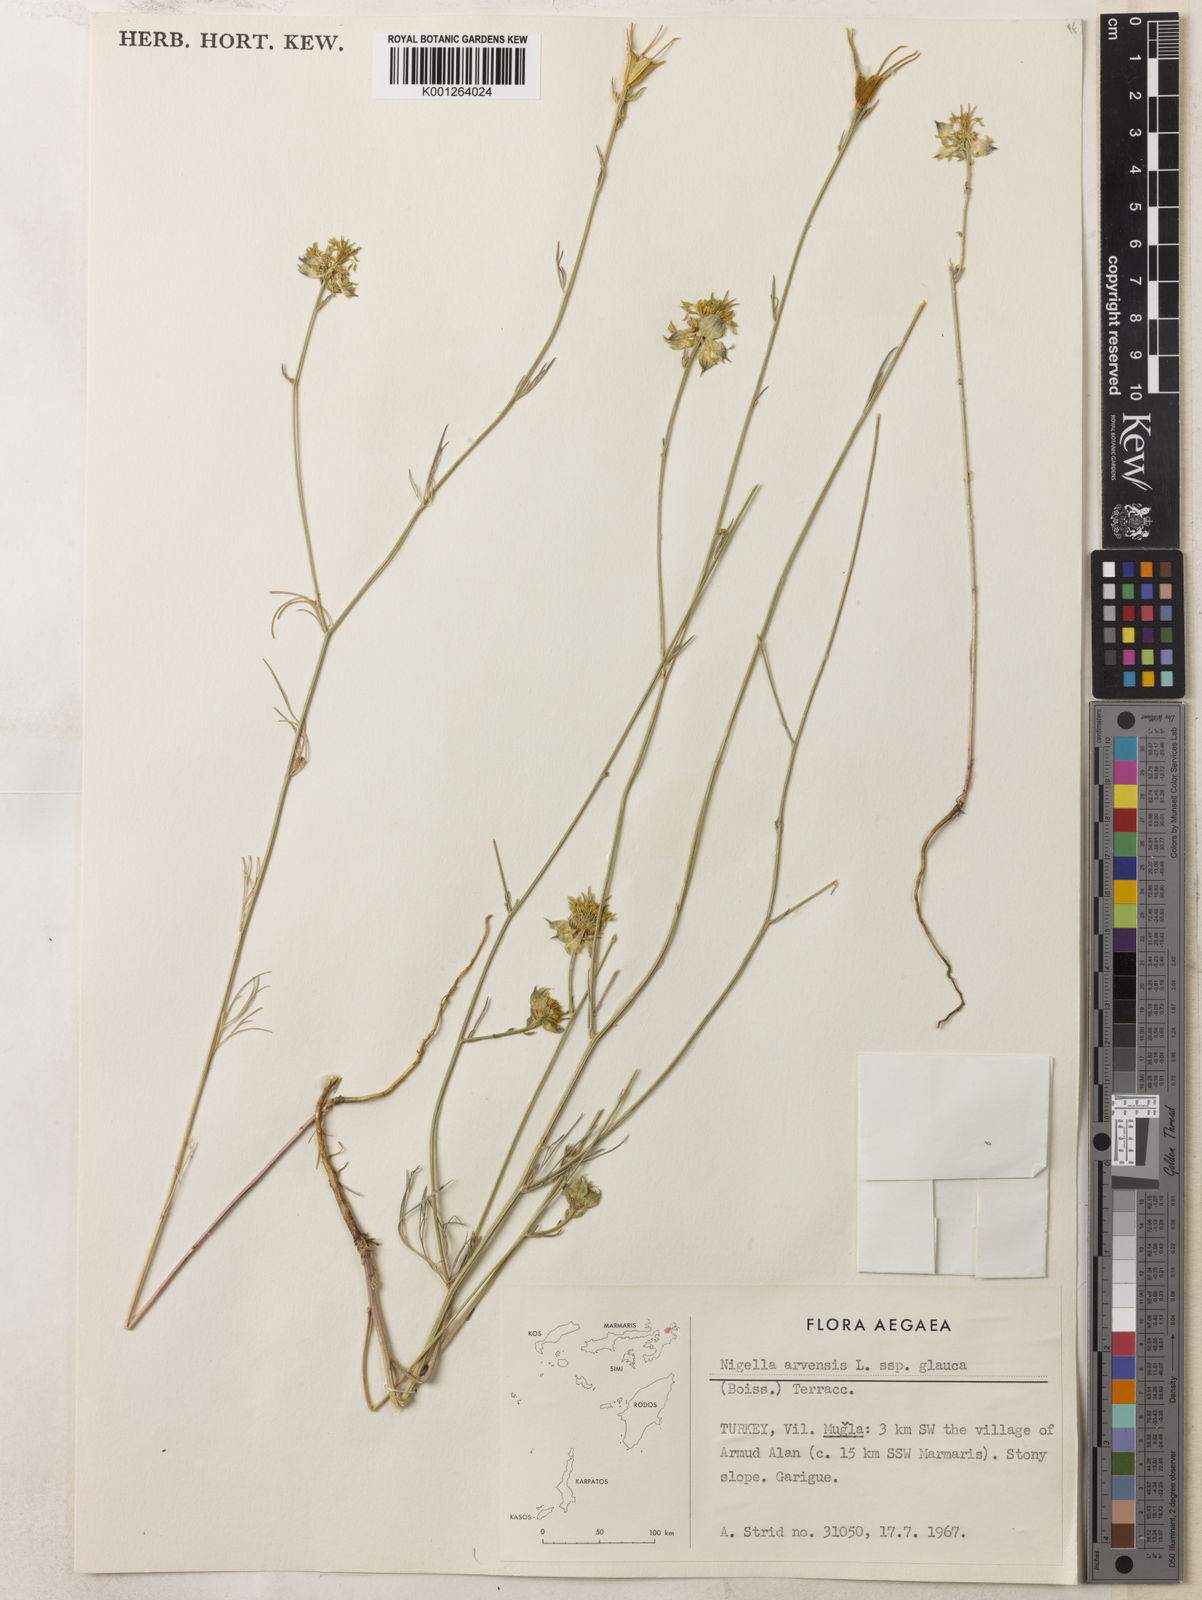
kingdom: Plantae
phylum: Tracheophyta
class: Magnoliopsida
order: Ranunculales
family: Ranunculaceae
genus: Nigella
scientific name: Nigella arvensis
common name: Wild fennel-flower
